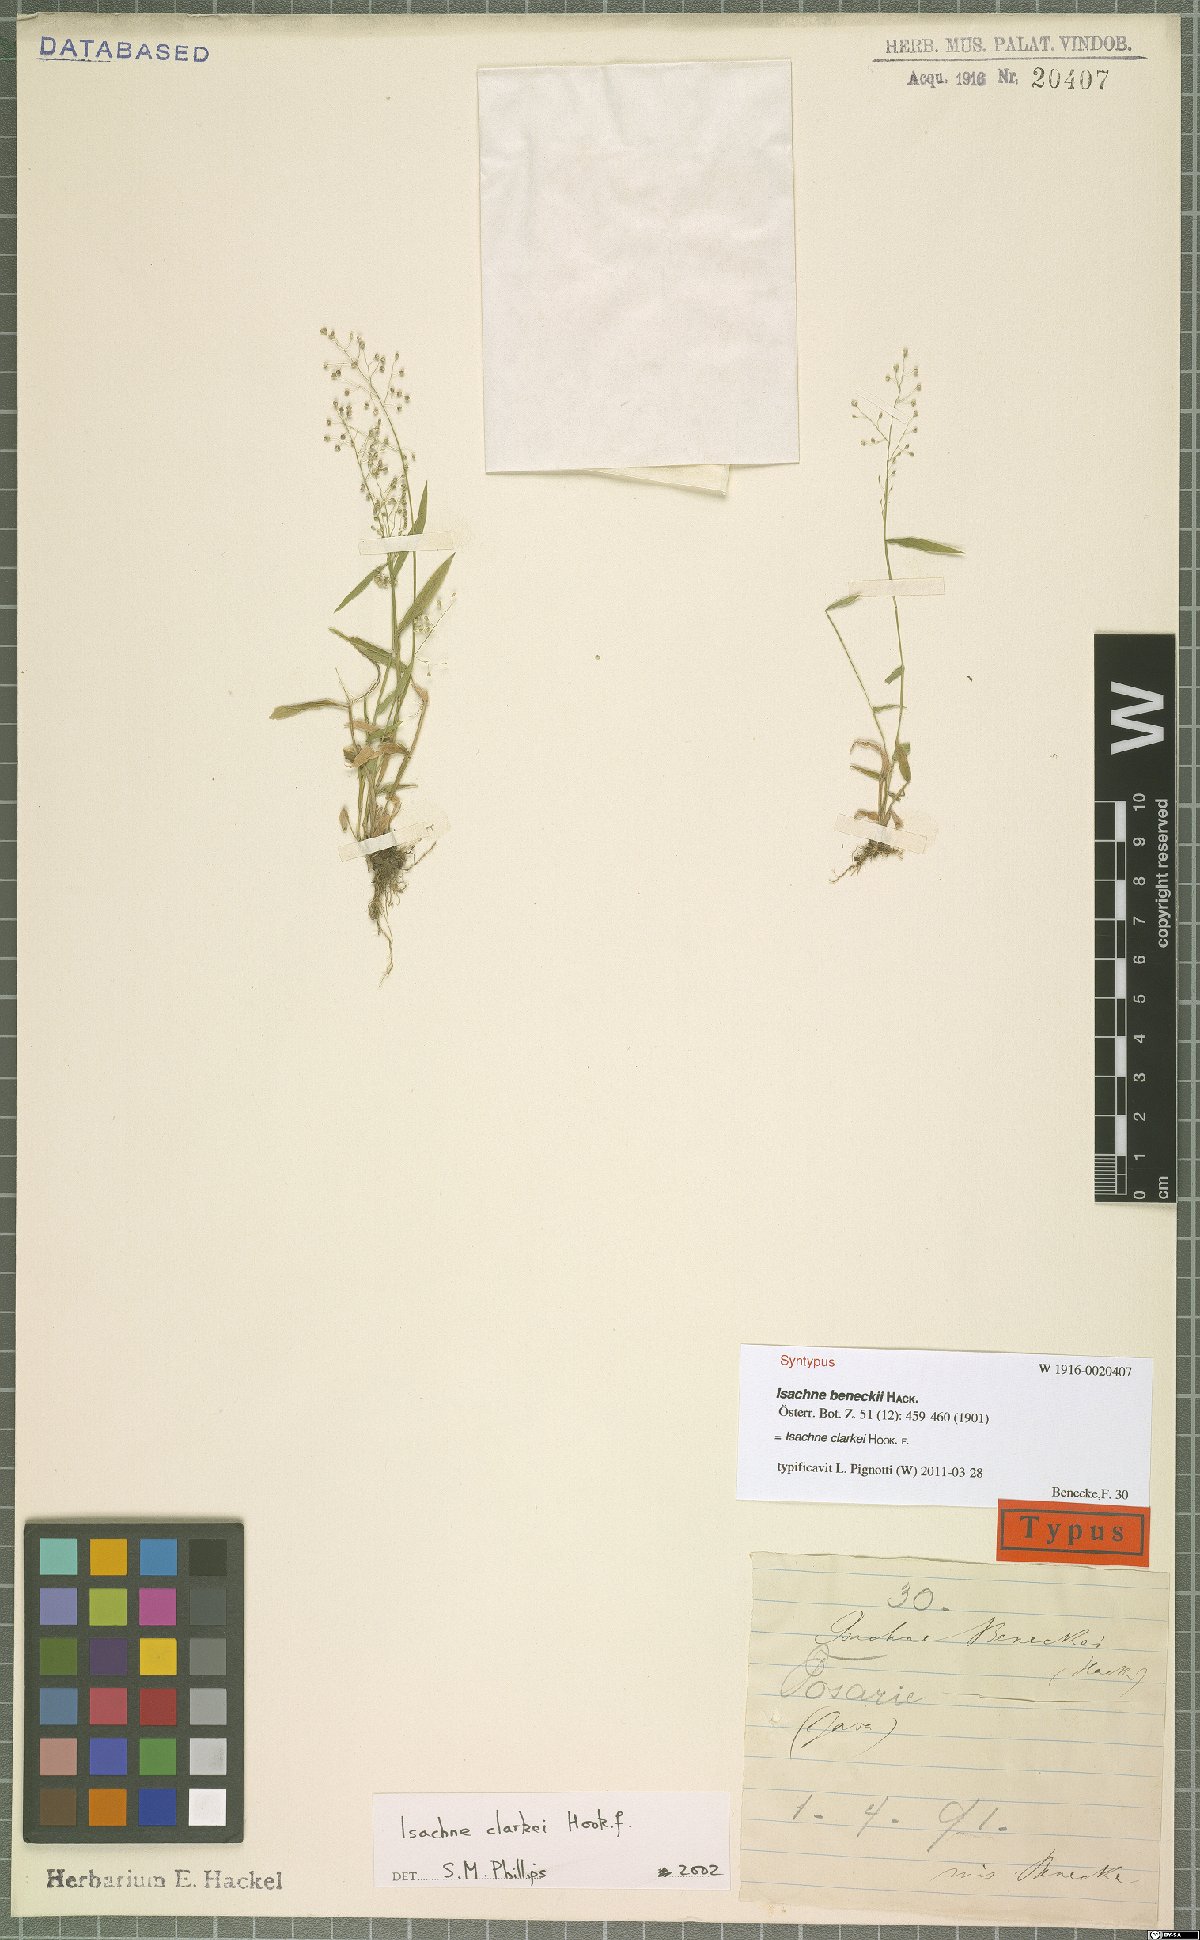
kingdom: Plantae
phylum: Tracheophyta
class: Liliopsida
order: Poales
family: Poaceae
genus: Isachne
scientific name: Isachne clarkei
